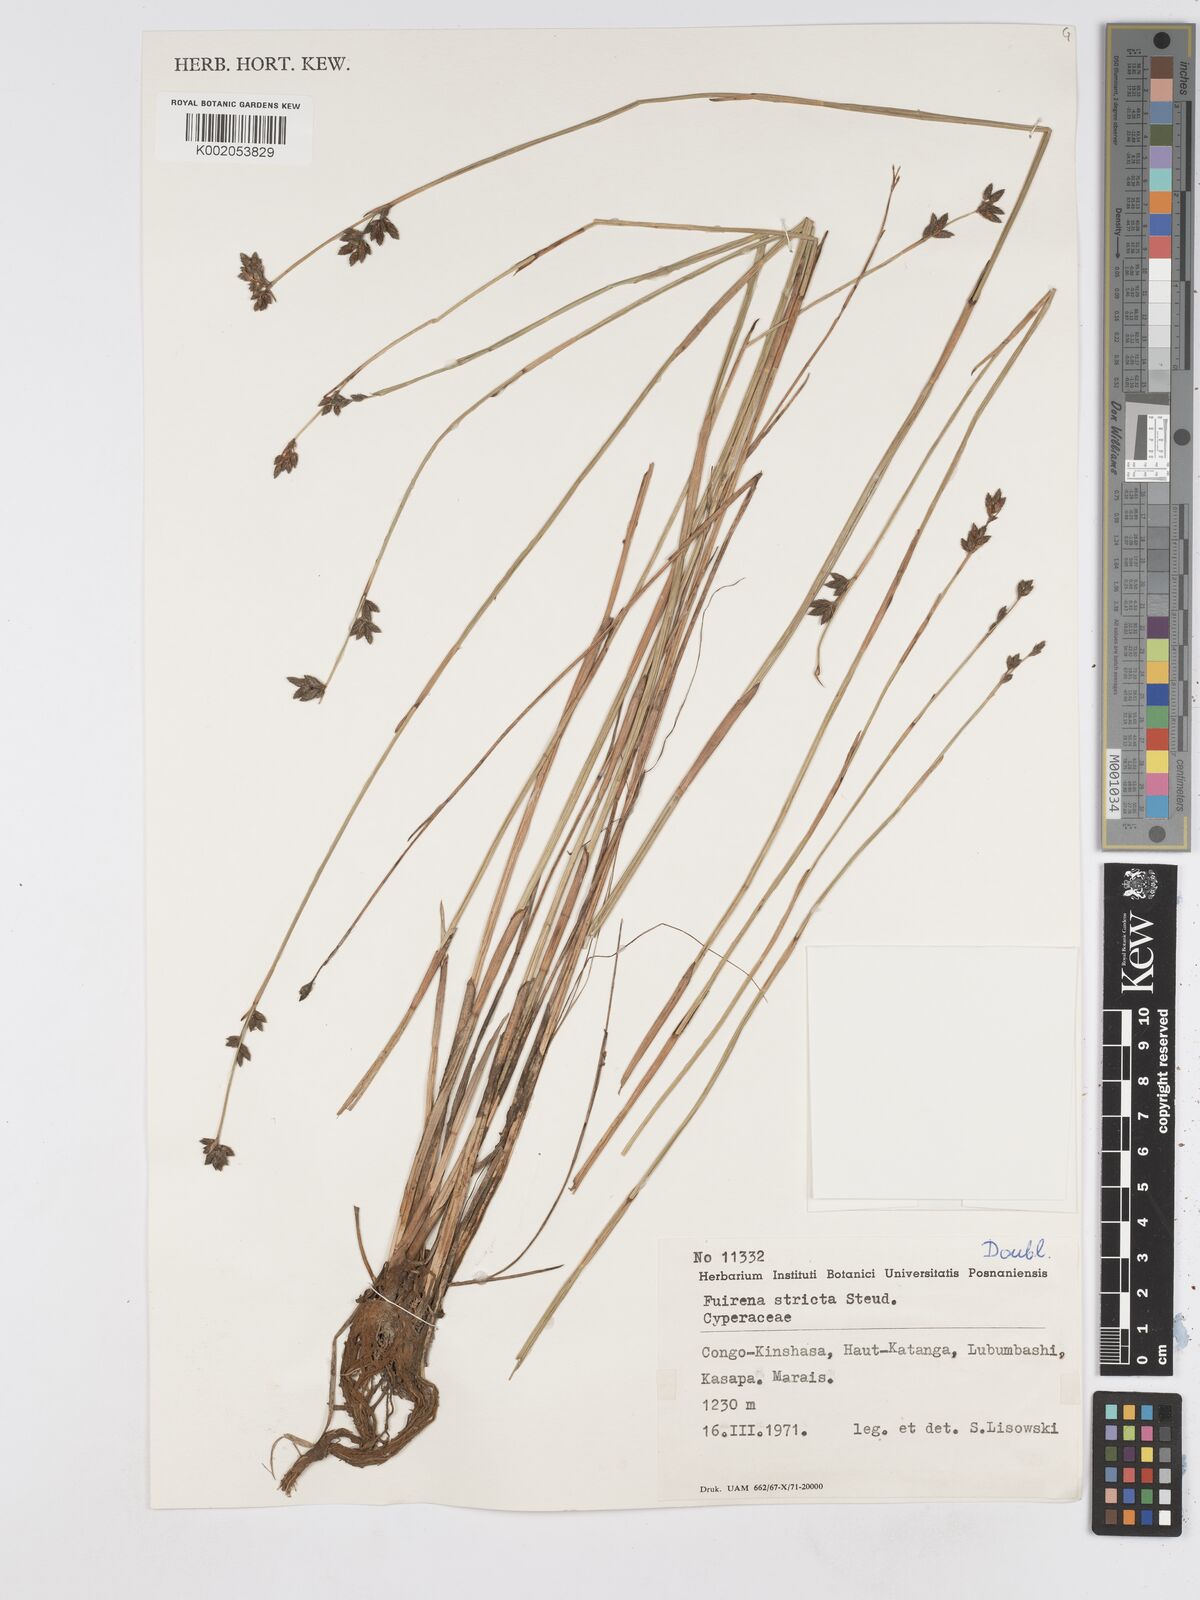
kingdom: Plantae
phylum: Tracheophyta
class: Liliopsida
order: Poales
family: Cyperaceae
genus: Fuirena
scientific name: Fuirena stricta
